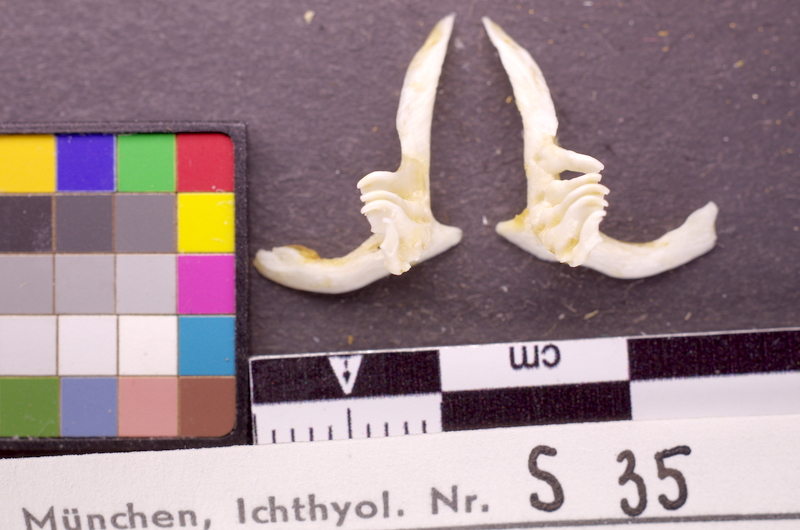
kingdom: Animalia
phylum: Chordata
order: Cypriniformes
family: Cyprinidae
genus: Abramis
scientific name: Abramis brama
